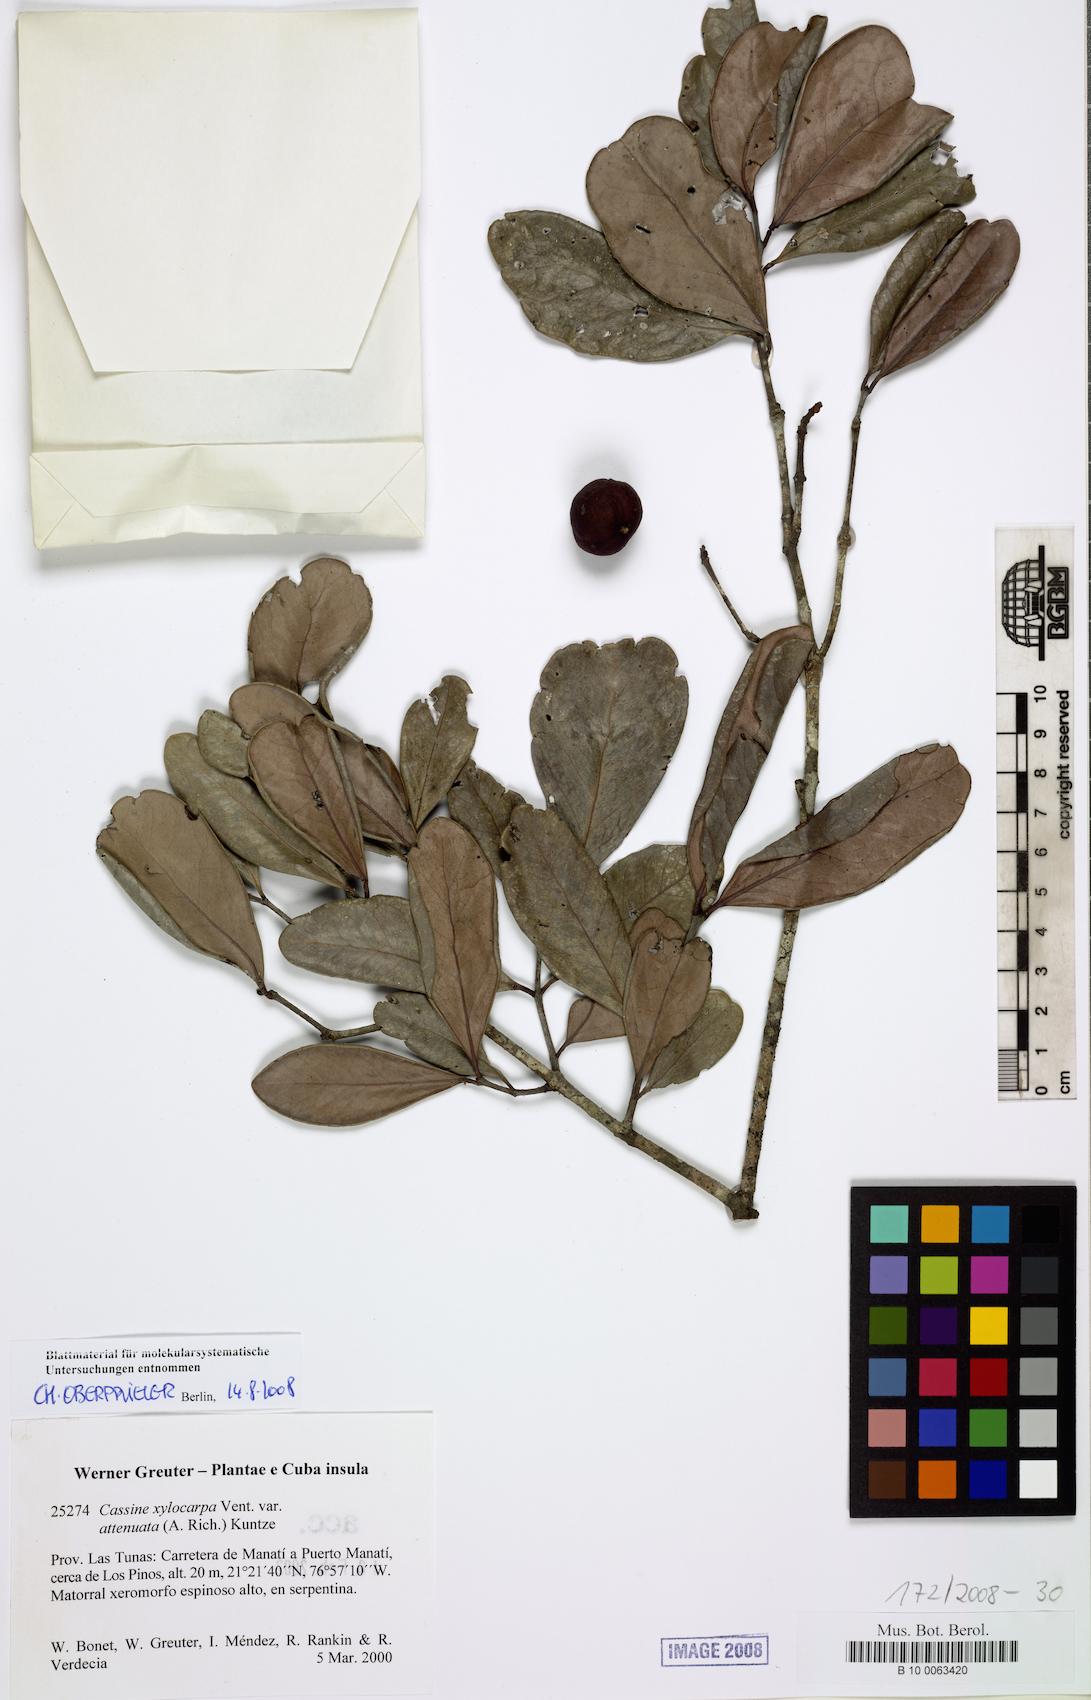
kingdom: Plantae
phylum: Tracheophyta
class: Magnoliopsida
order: Celastrales
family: Celastraceae
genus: Elaeodendron
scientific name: Elaeodendron xylocarpum
